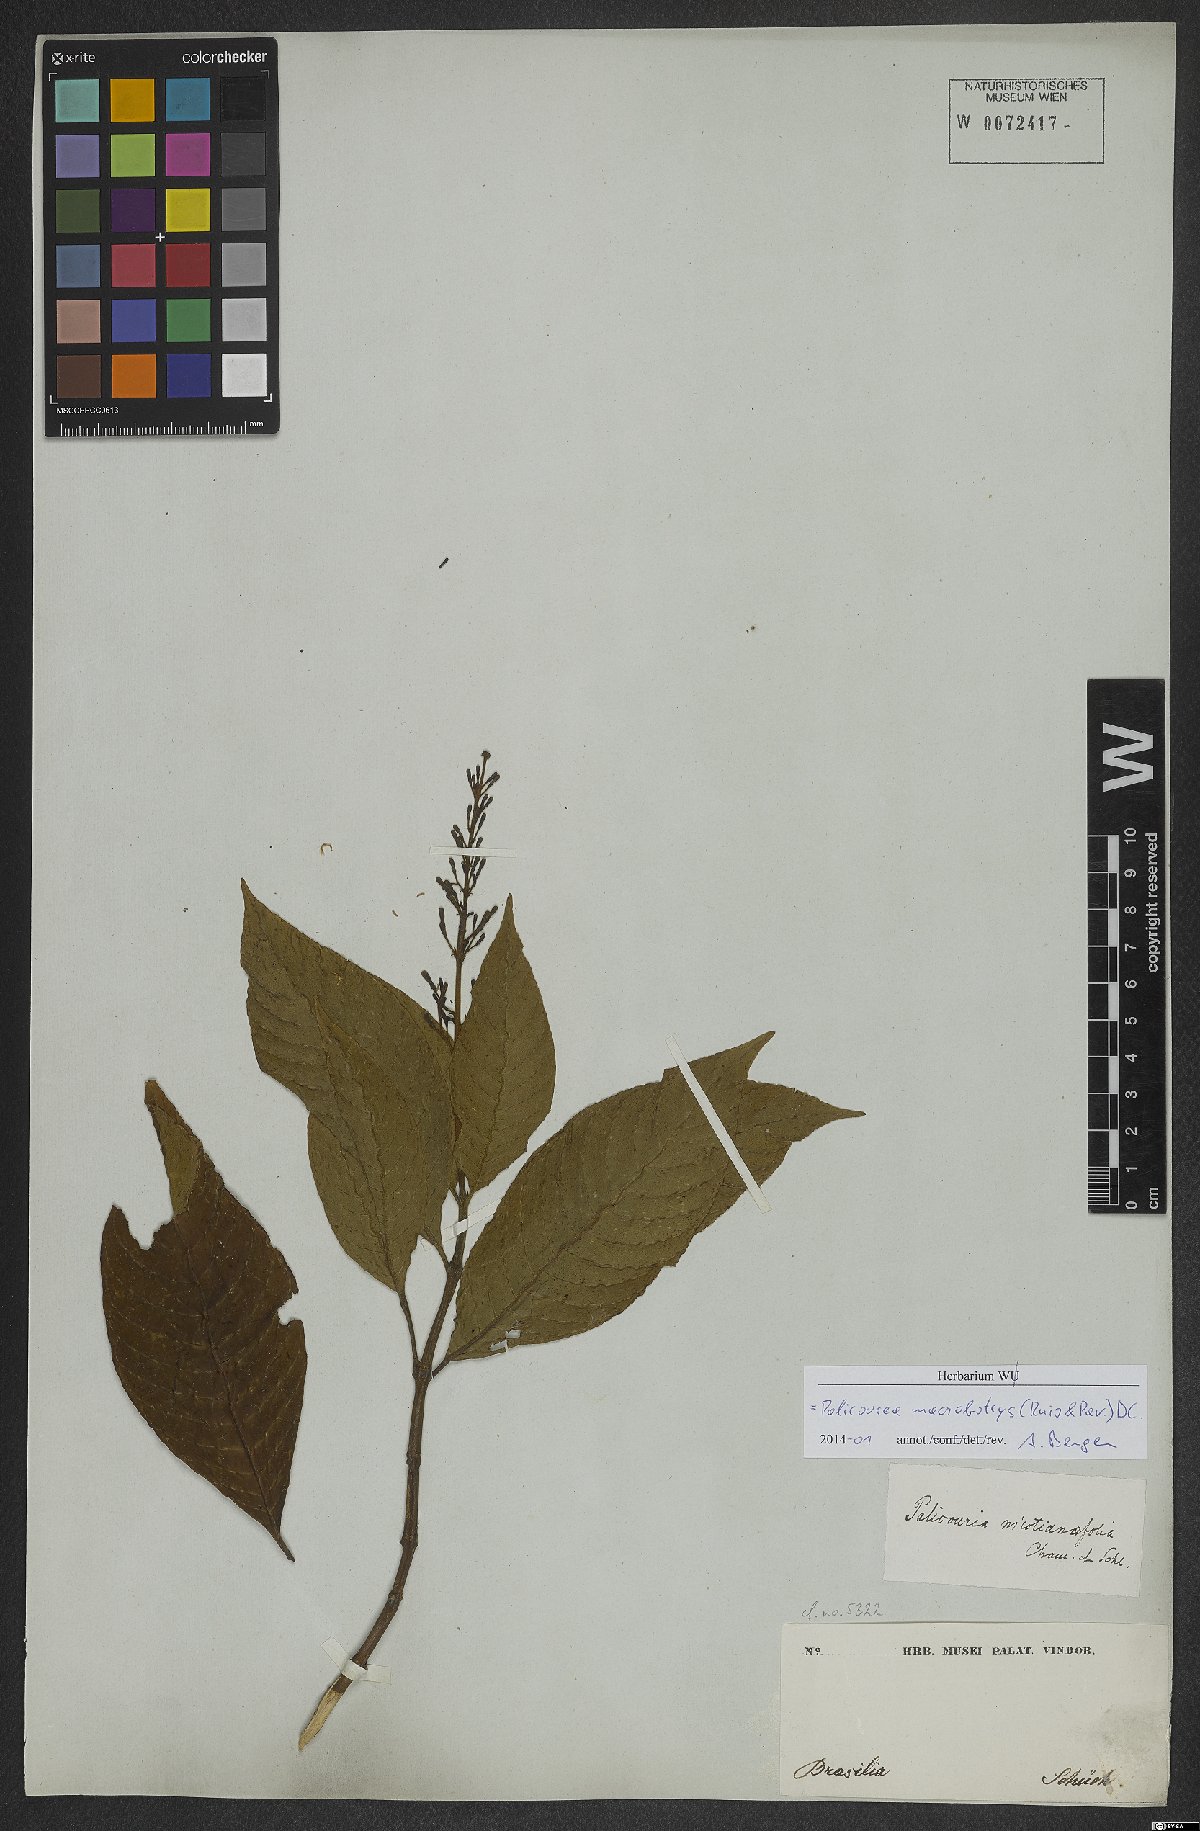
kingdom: Plantae
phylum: Tracheophyta
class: Magnoliopsida
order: Gentianales
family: Rubiaceae
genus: Palicourea
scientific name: Palicourea macrobotrys
